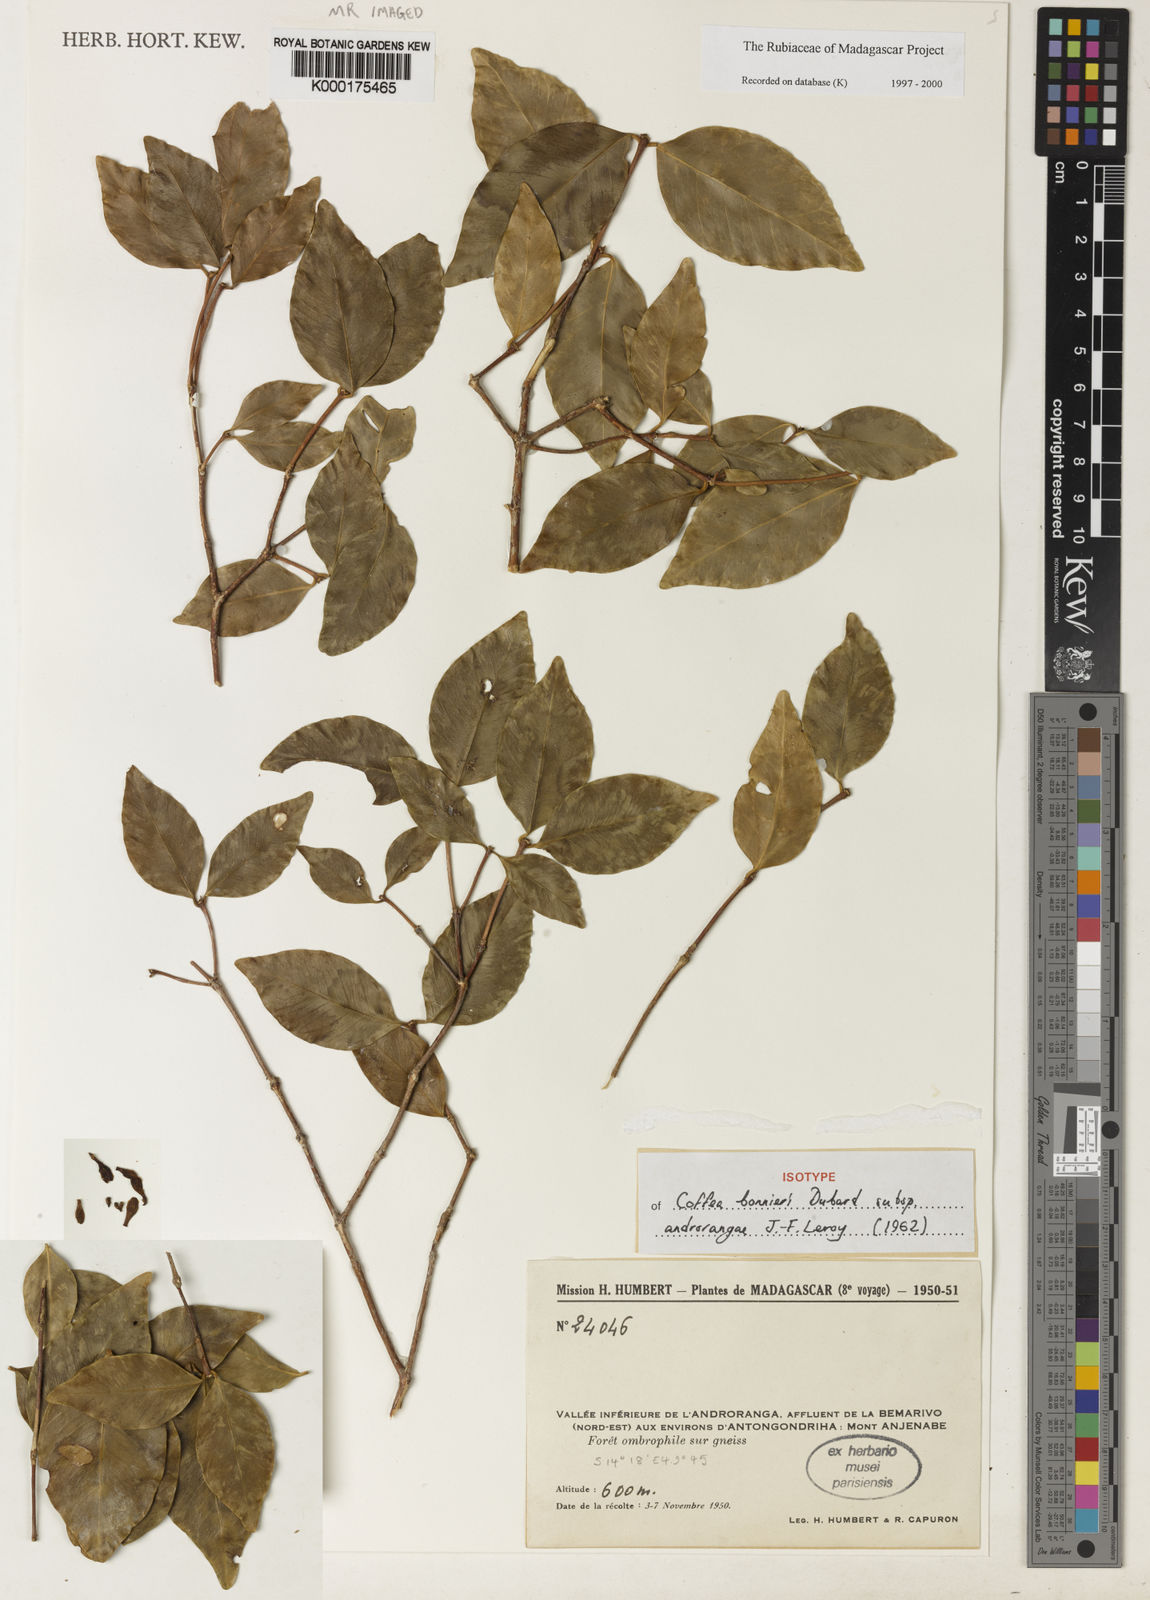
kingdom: Plantae
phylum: Tracheophyta
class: Magnoliopsida
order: Gentianales
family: Rubiaceae
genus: Coffea
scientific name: Coffea bonnieri
